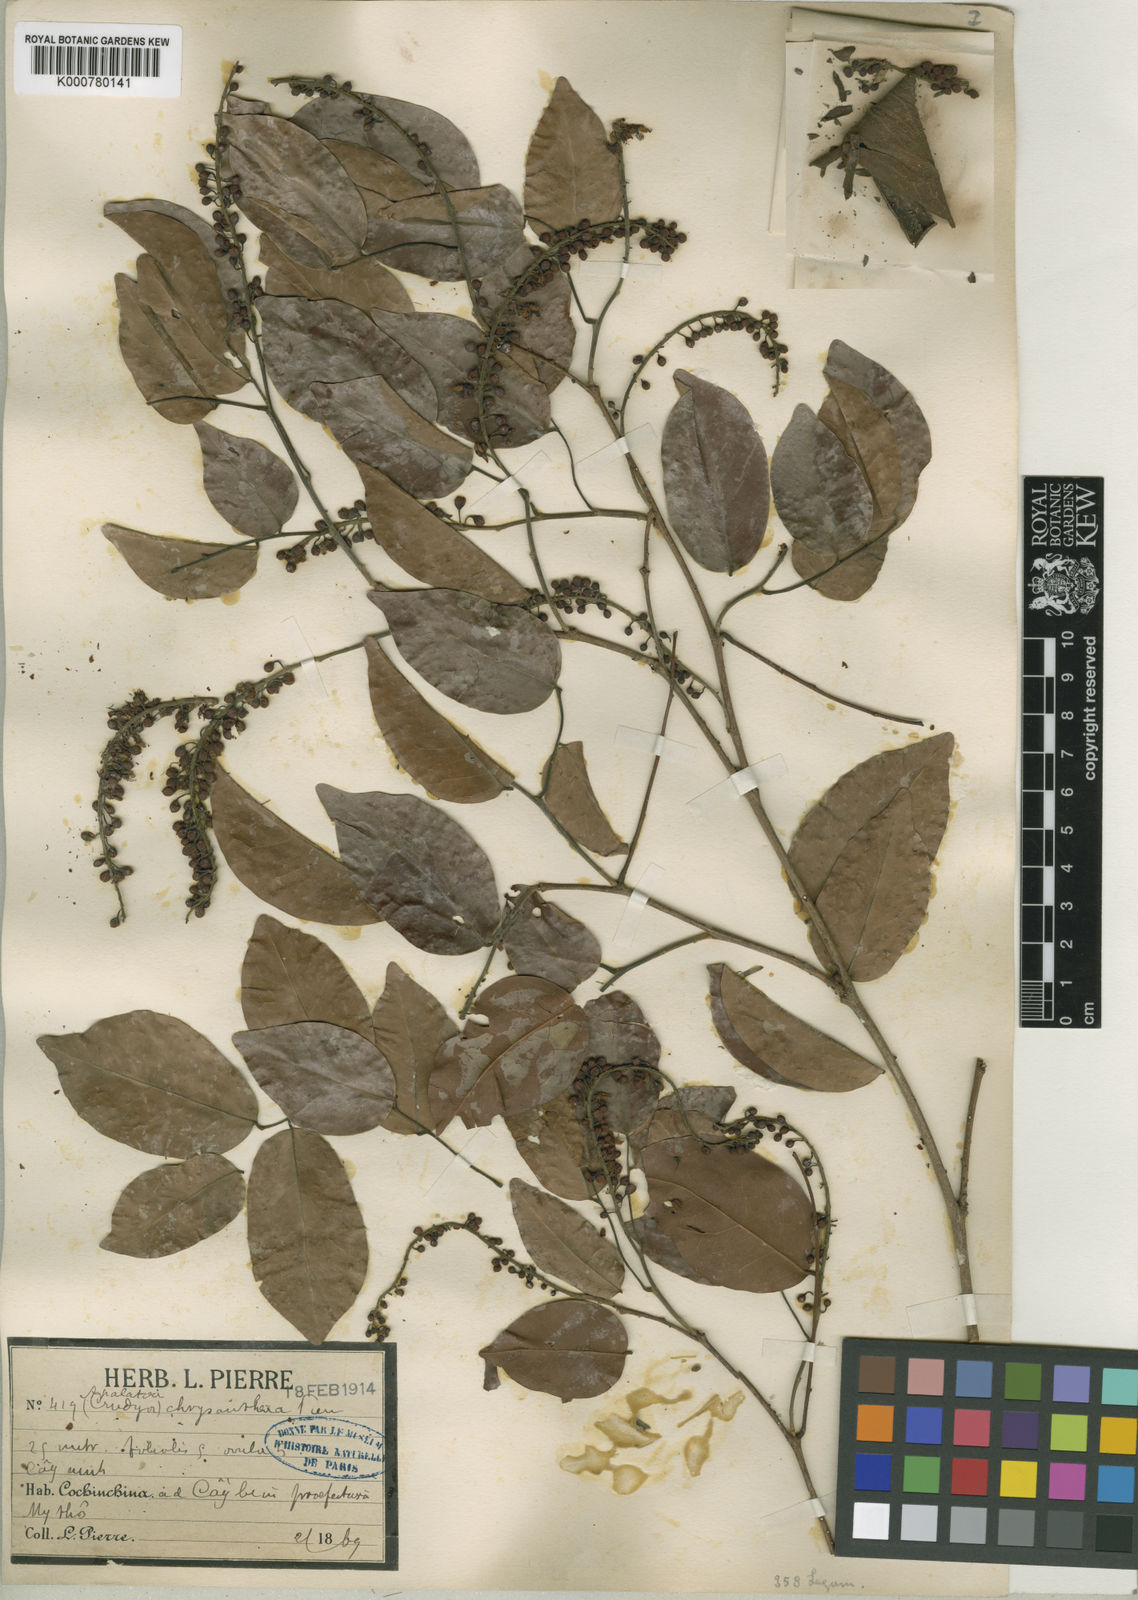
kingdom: Plantae
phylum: Tracheophyta
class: Magnoliopsida
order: Fabales
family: Fabaceae
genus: Crudia
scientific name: Crudia zeylanica
